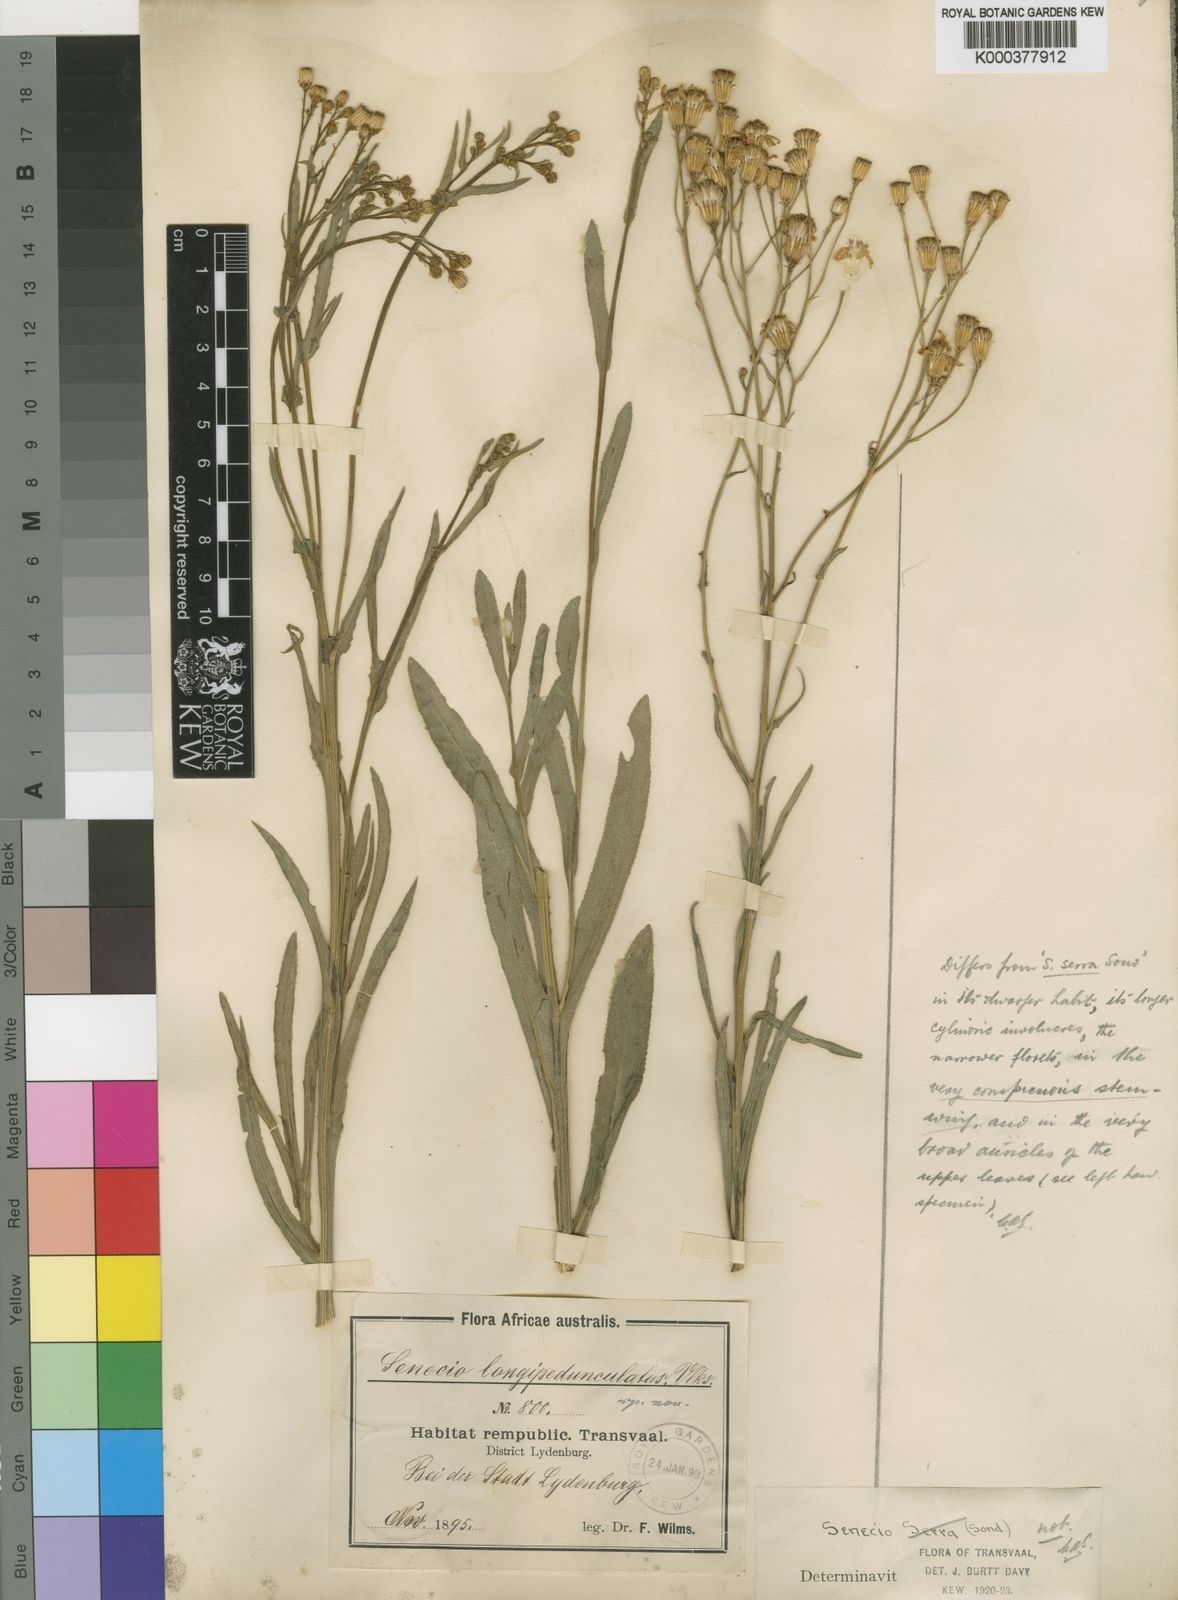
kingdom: Plantae
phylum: Tracheophyta
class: Magnoliopsida
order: Asterales
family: Asteraceae
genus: Senecio
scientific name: Senecio
